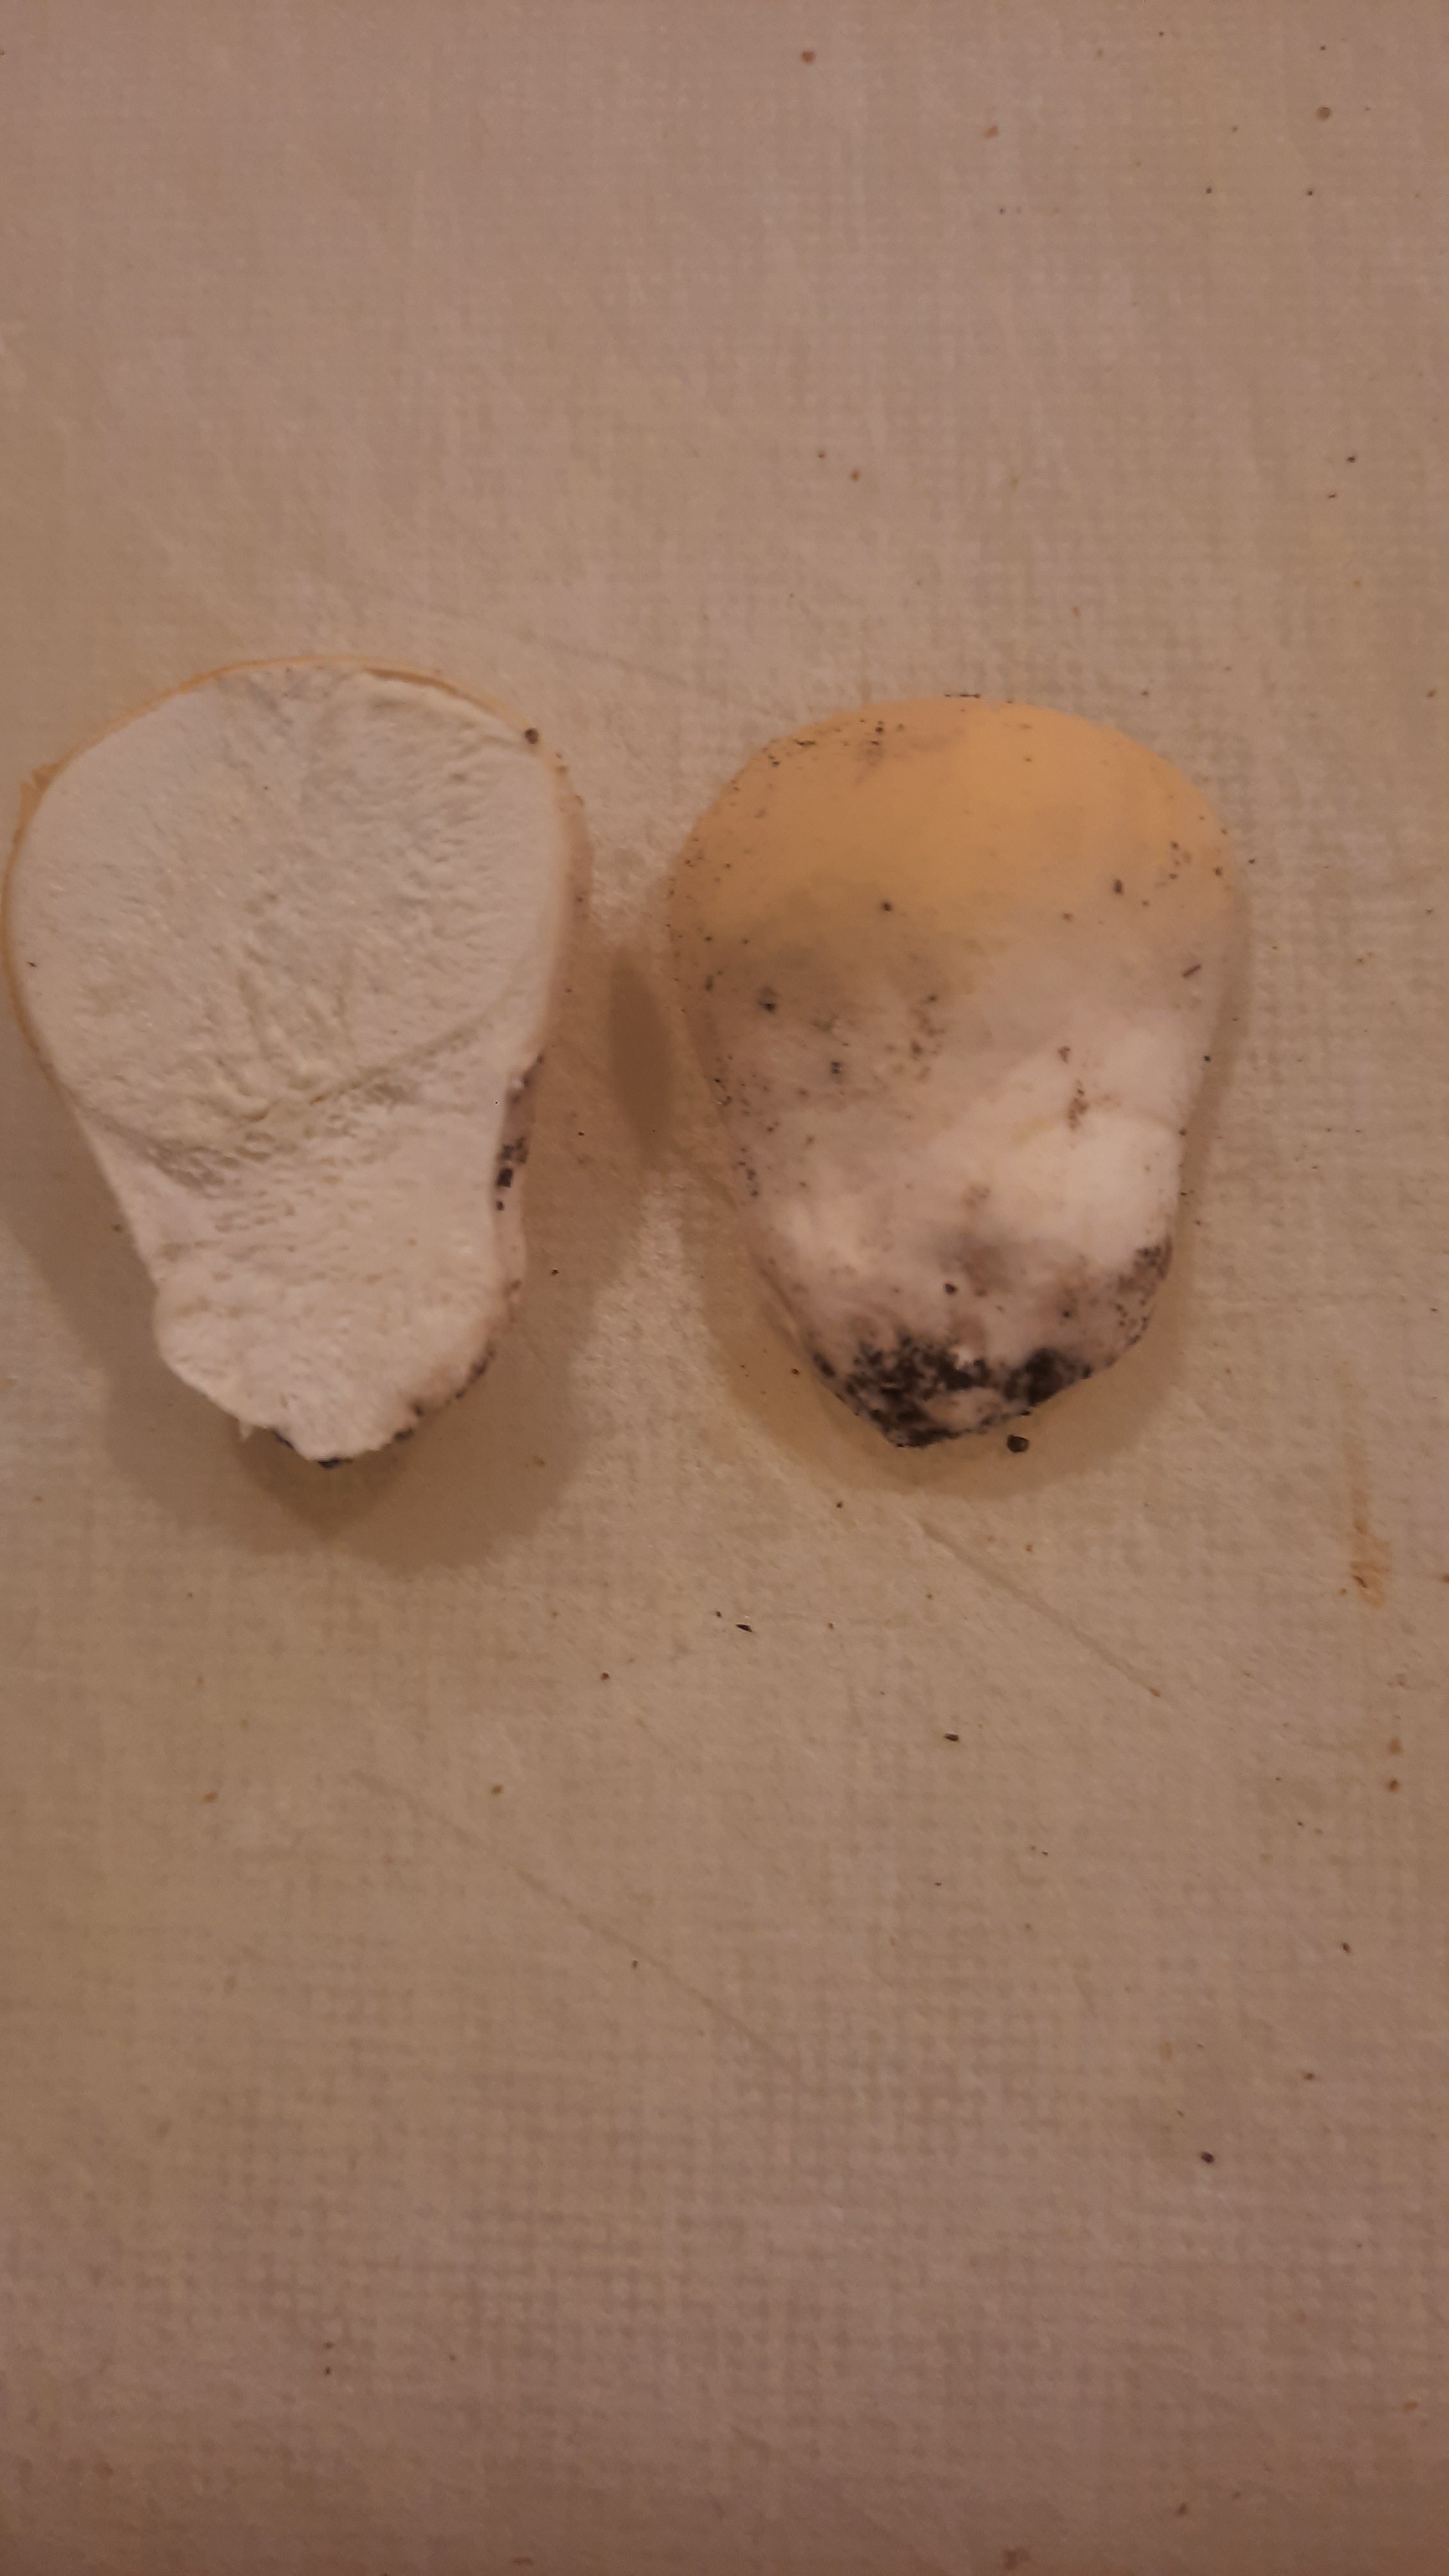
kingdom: Fungi
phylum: Basidiomycota
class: Agaricomycetes
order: Agaricales
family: Lycoperdaceae
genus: Lycoperdon
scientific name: Lycoperdon pratense
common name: flad støvbold
